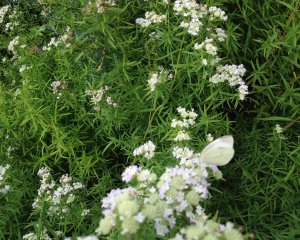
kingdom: Animalia
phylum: Arthropoda
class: Insecta
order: Lepidoptera
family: Pieridae
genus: Pieris
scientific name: Pieris rapae
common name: Cabbage White
